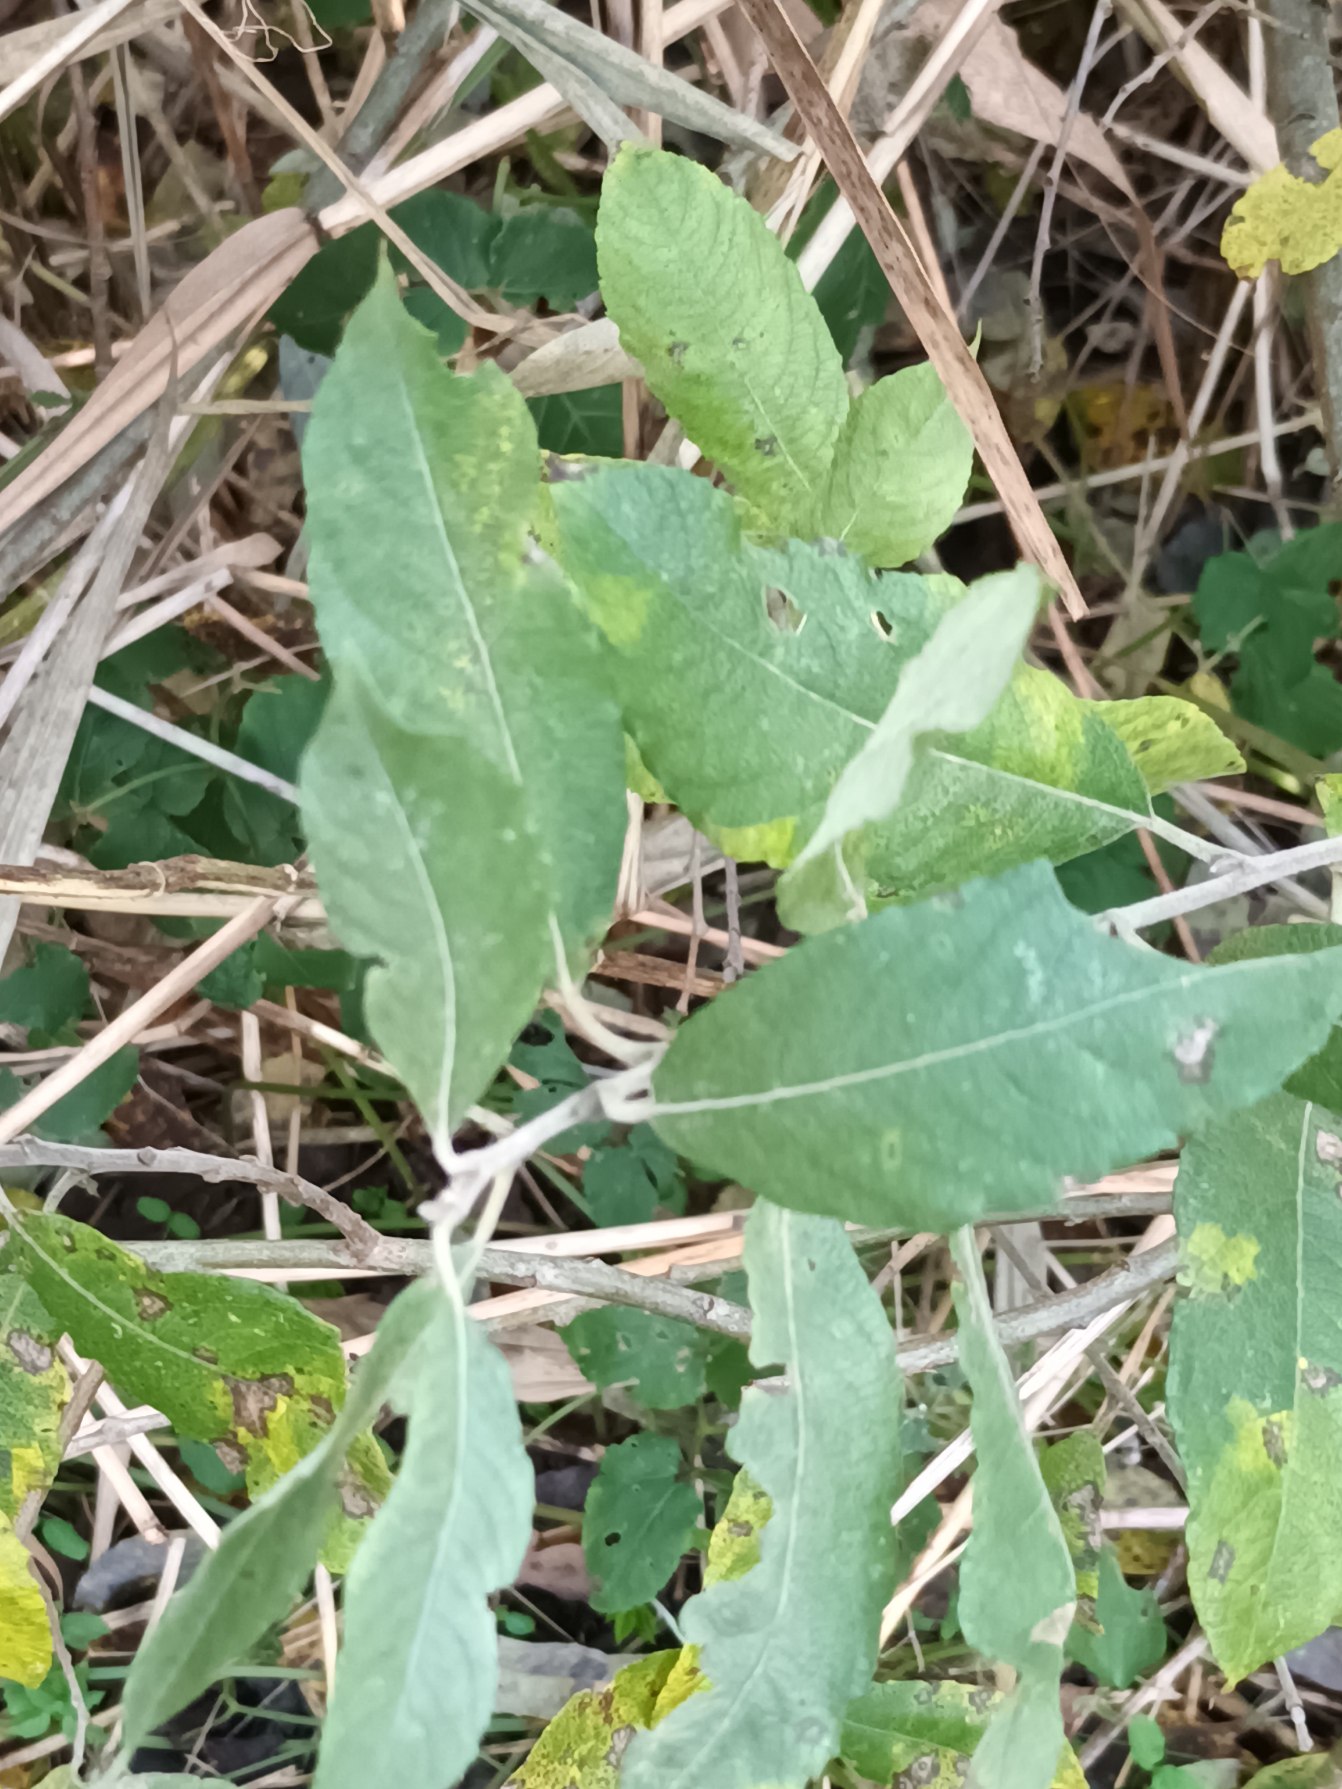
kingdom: Plantae
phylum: Tracheophyta
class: Magnoliopsida
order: Malpighiales
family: Salicaceae
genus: Salix
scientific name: Salix cinerea
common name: Grå-pil
